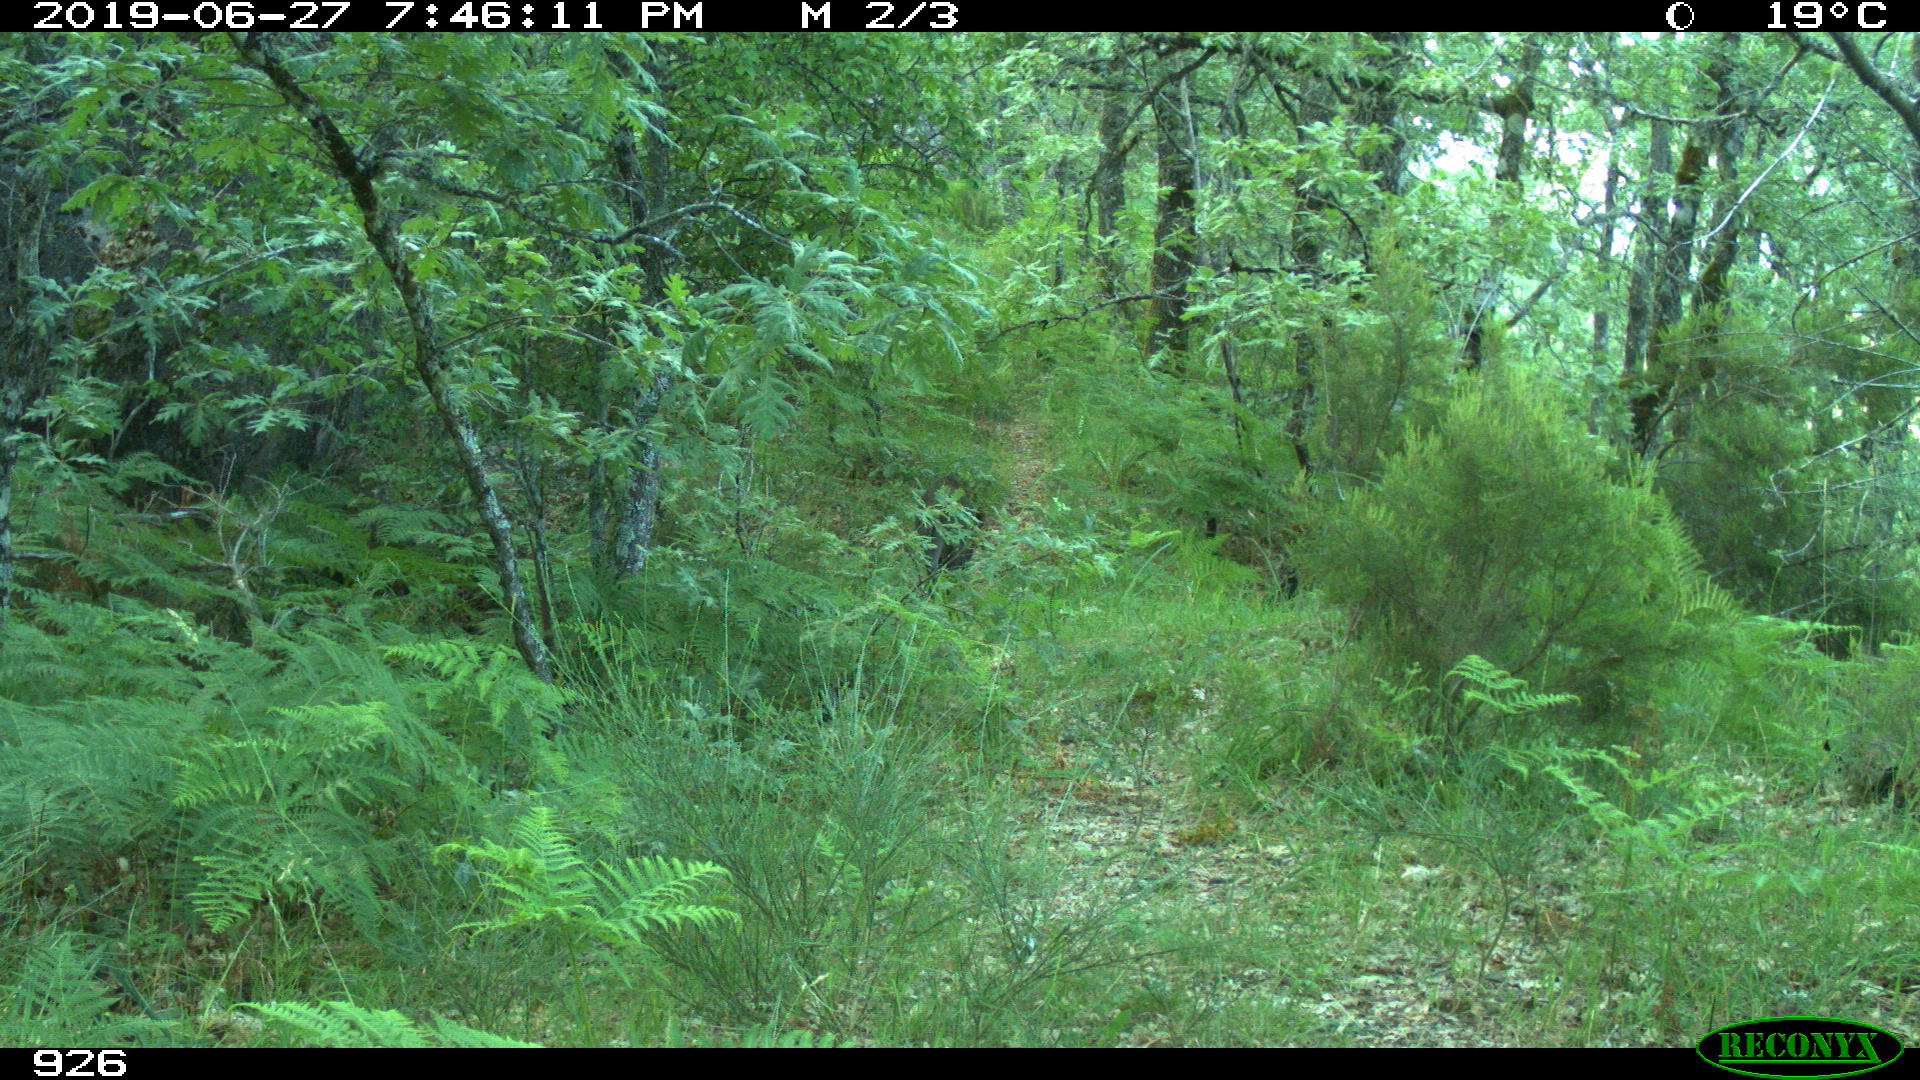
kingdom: Animalia
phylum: Chordata
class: Mammalia
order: Artiodactyla
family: Suidae
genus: Sus
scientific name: Sus scrofa
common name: Wild boar
